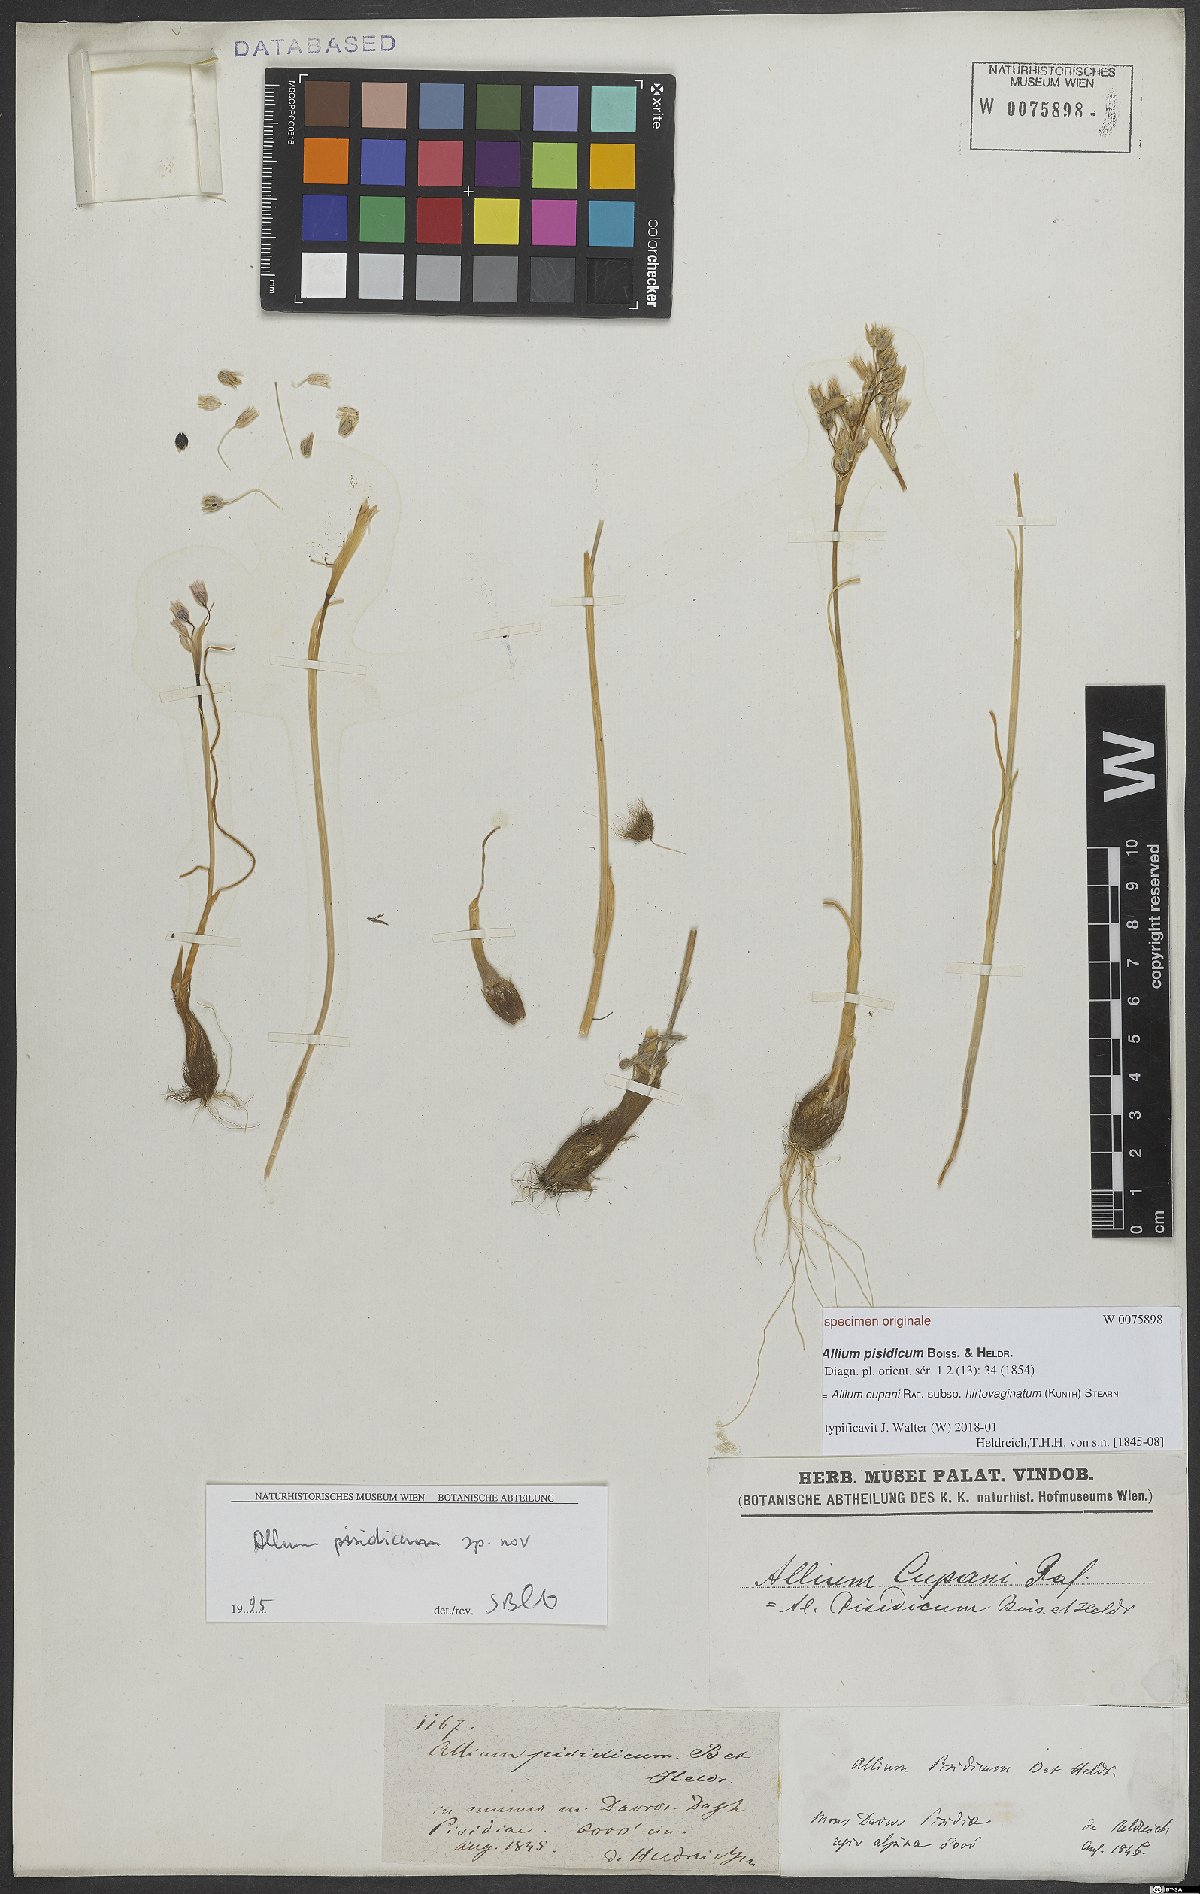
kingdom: Plantae
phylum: Tracheophyta
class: Liliopsida
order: Asparagales
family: Amaryllidaceae
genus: Allium
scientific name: Allium cupani
